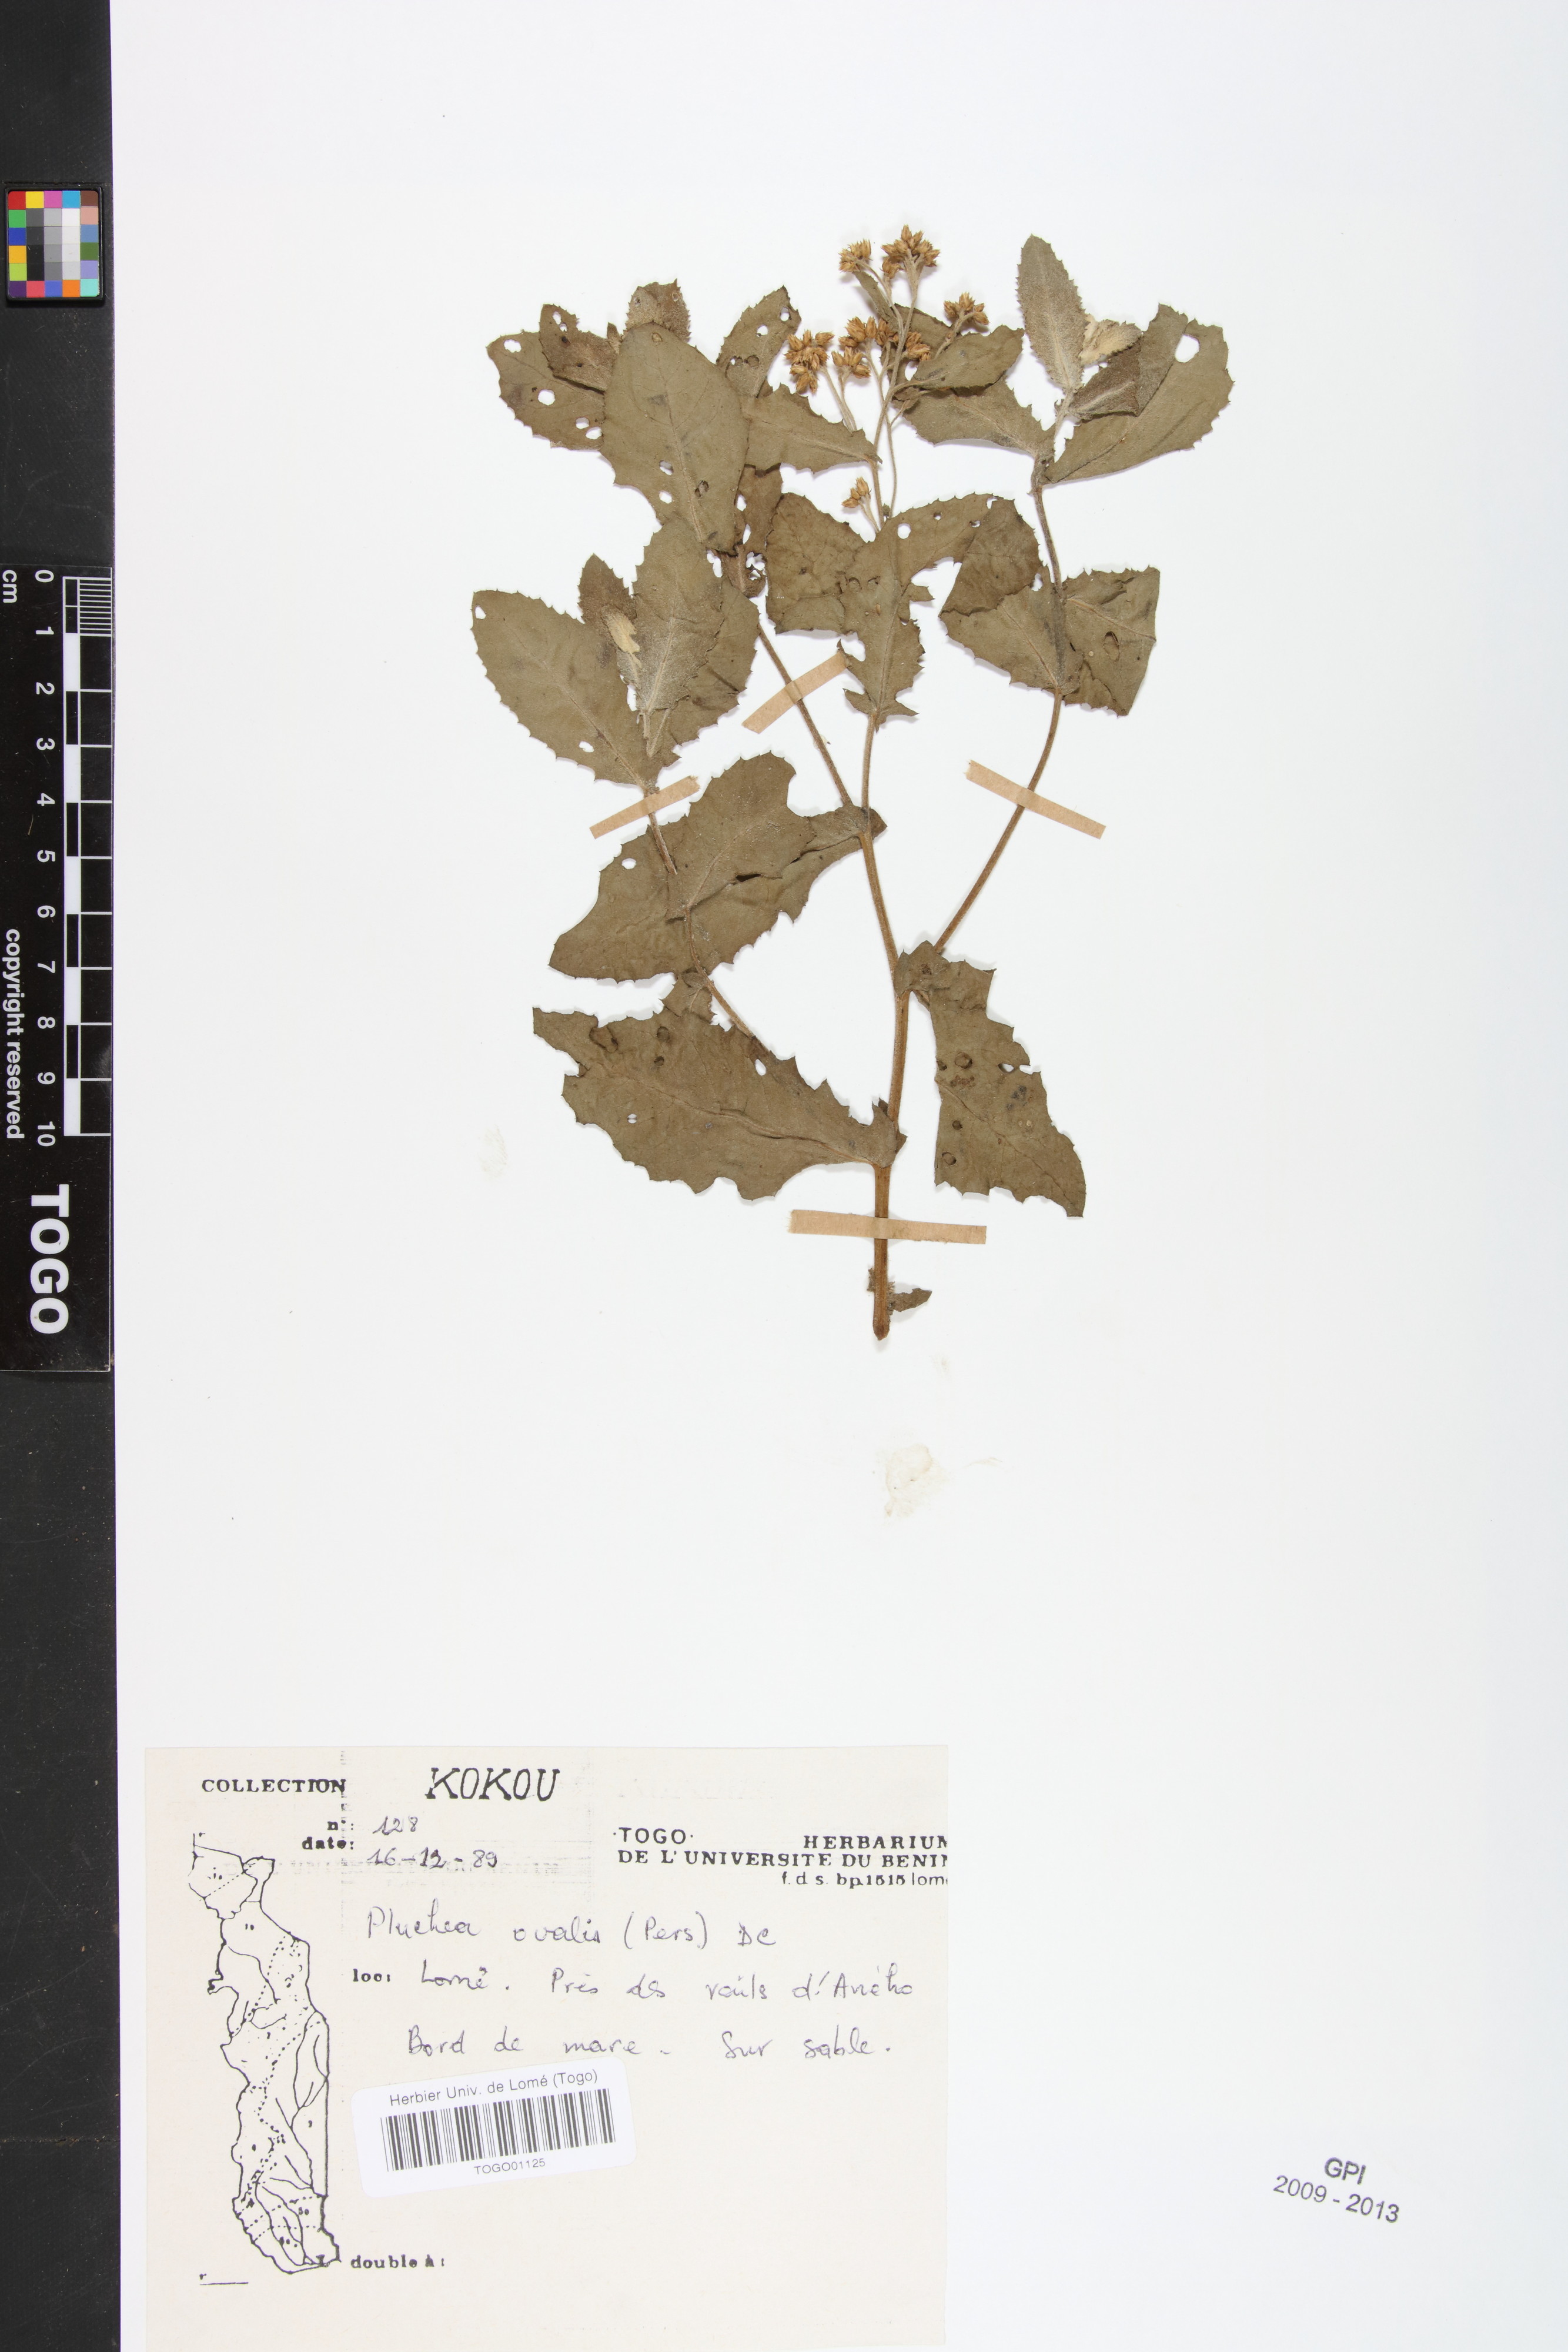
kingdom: Plantae
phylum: Tracheophyta
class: Magnoliopsida
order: Asterales
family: Asteraceae
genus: Pluchea
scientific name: Pluchea ovalis
